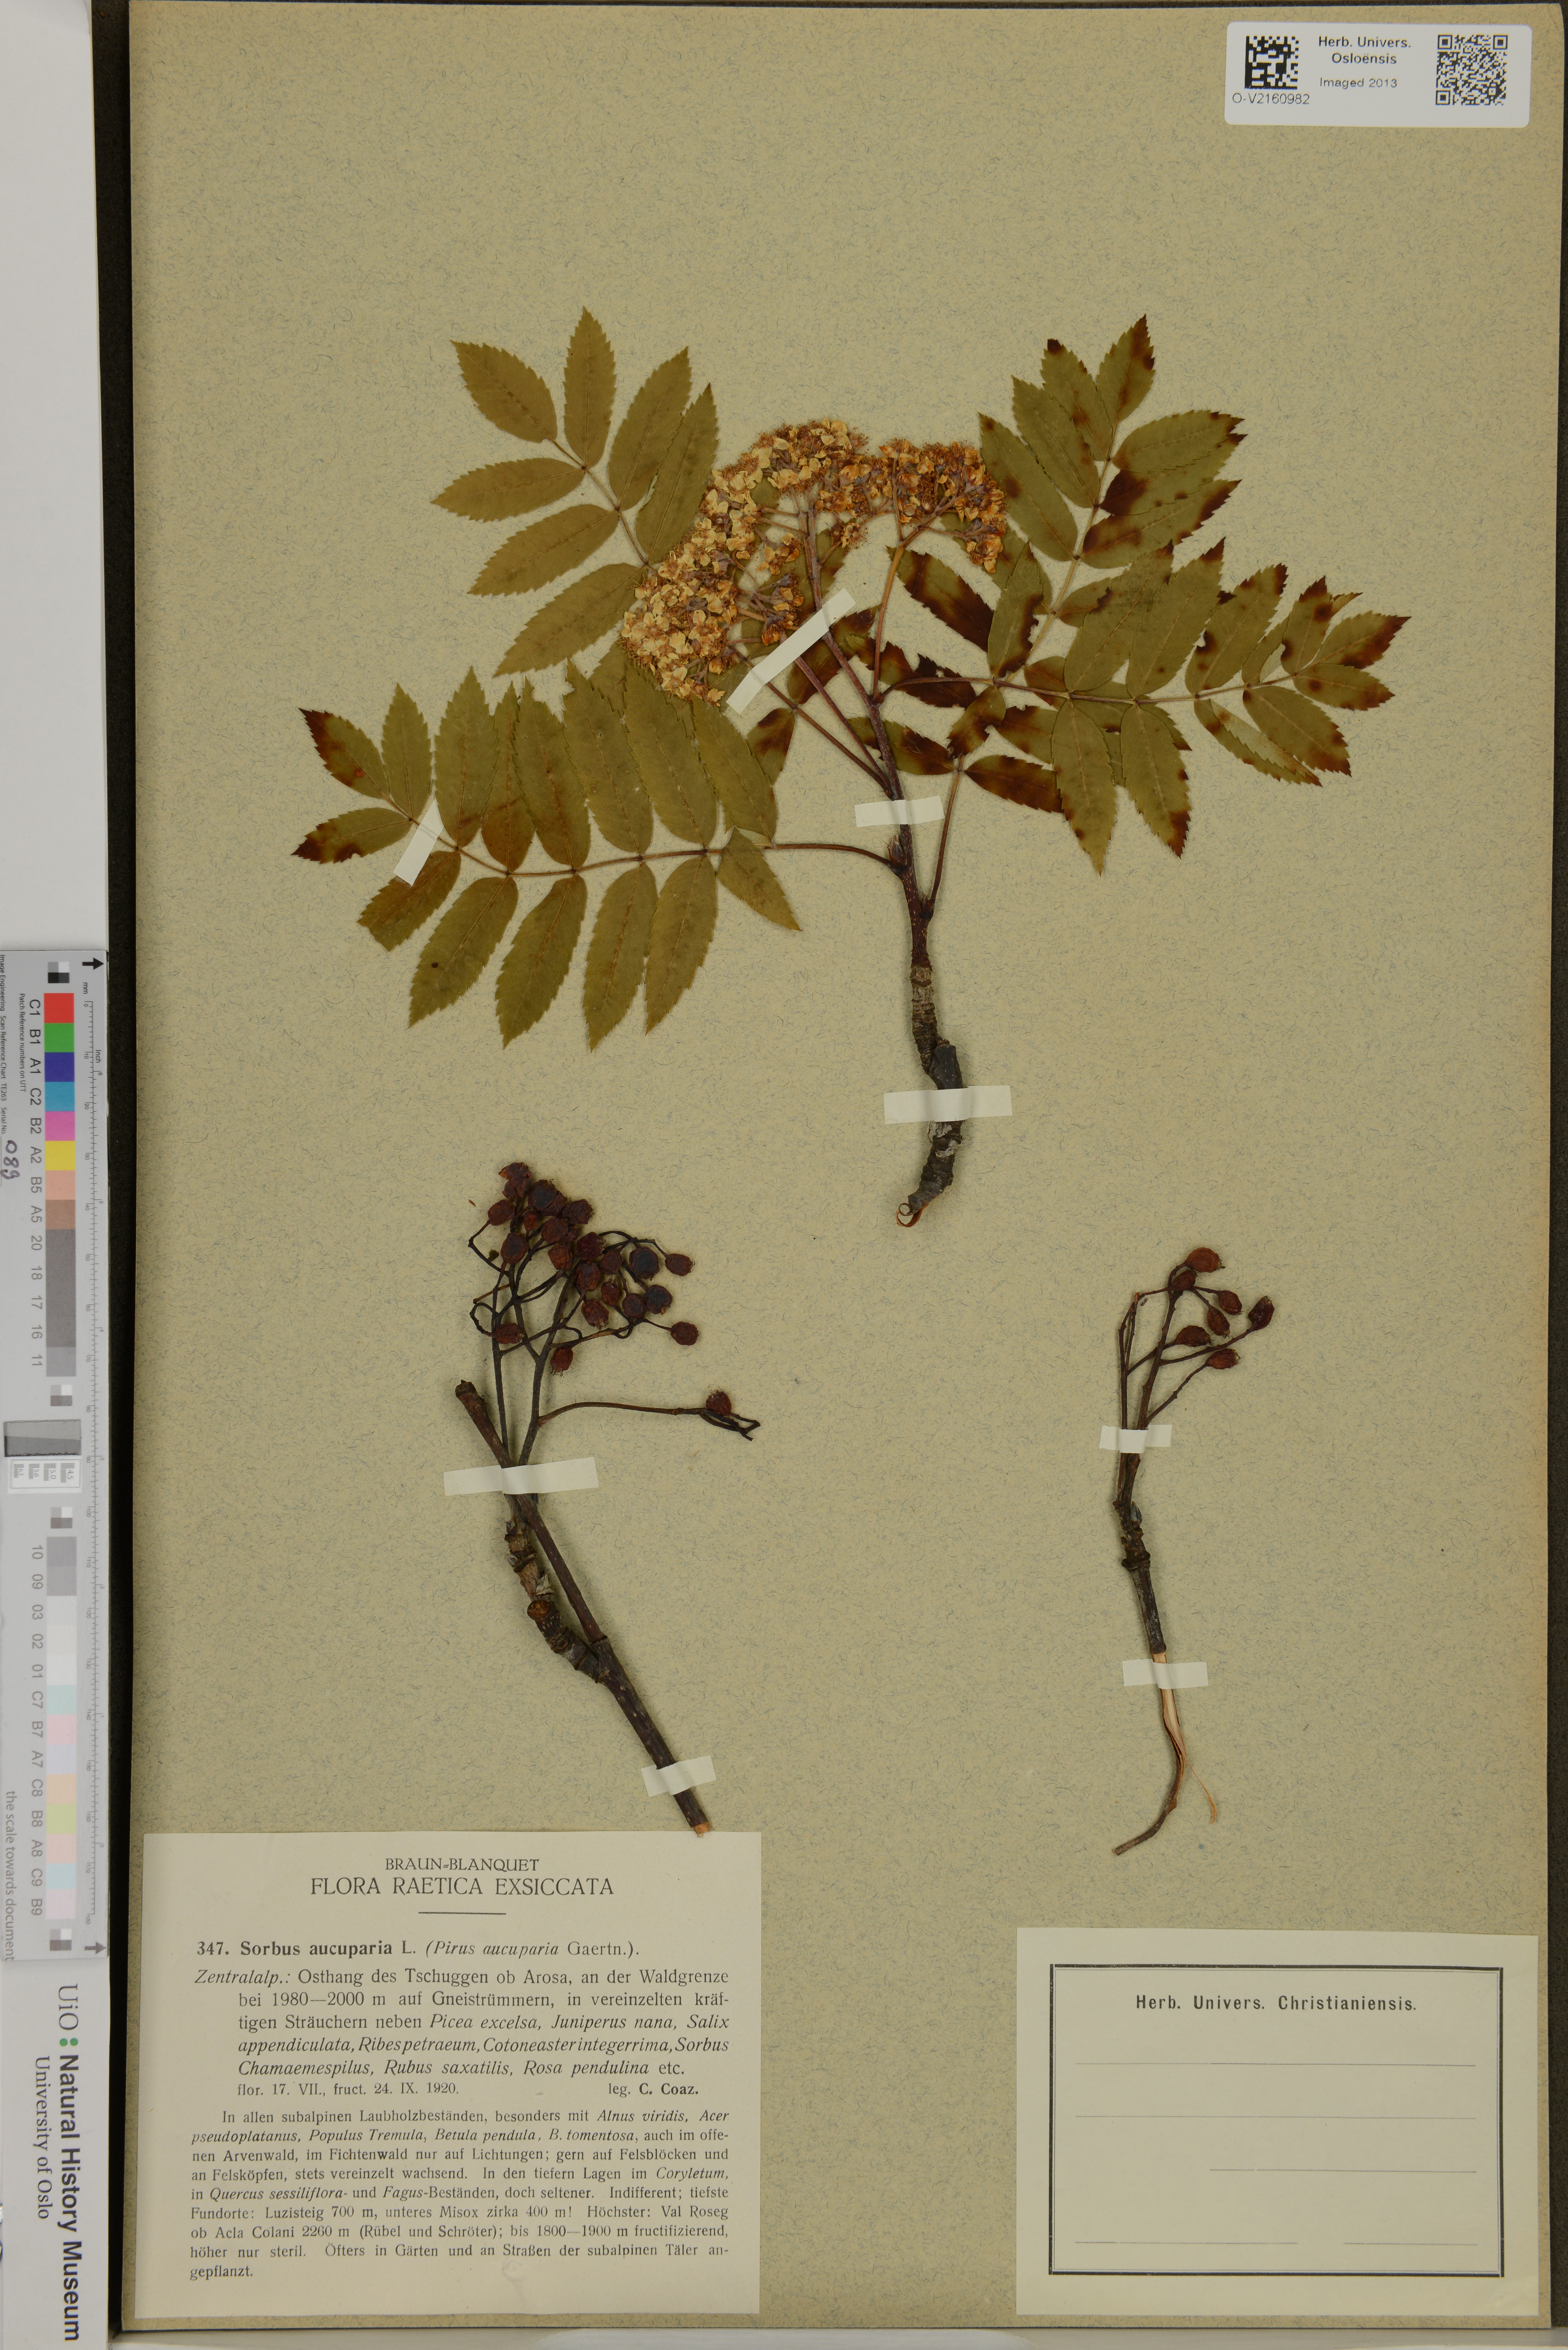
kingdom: Plantae
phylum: Tracheophyta
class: Magnoliopsida
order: Rosales
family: Rosaceae
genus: Sorbus
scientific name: Sorbus aucuparia
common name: Rowan
